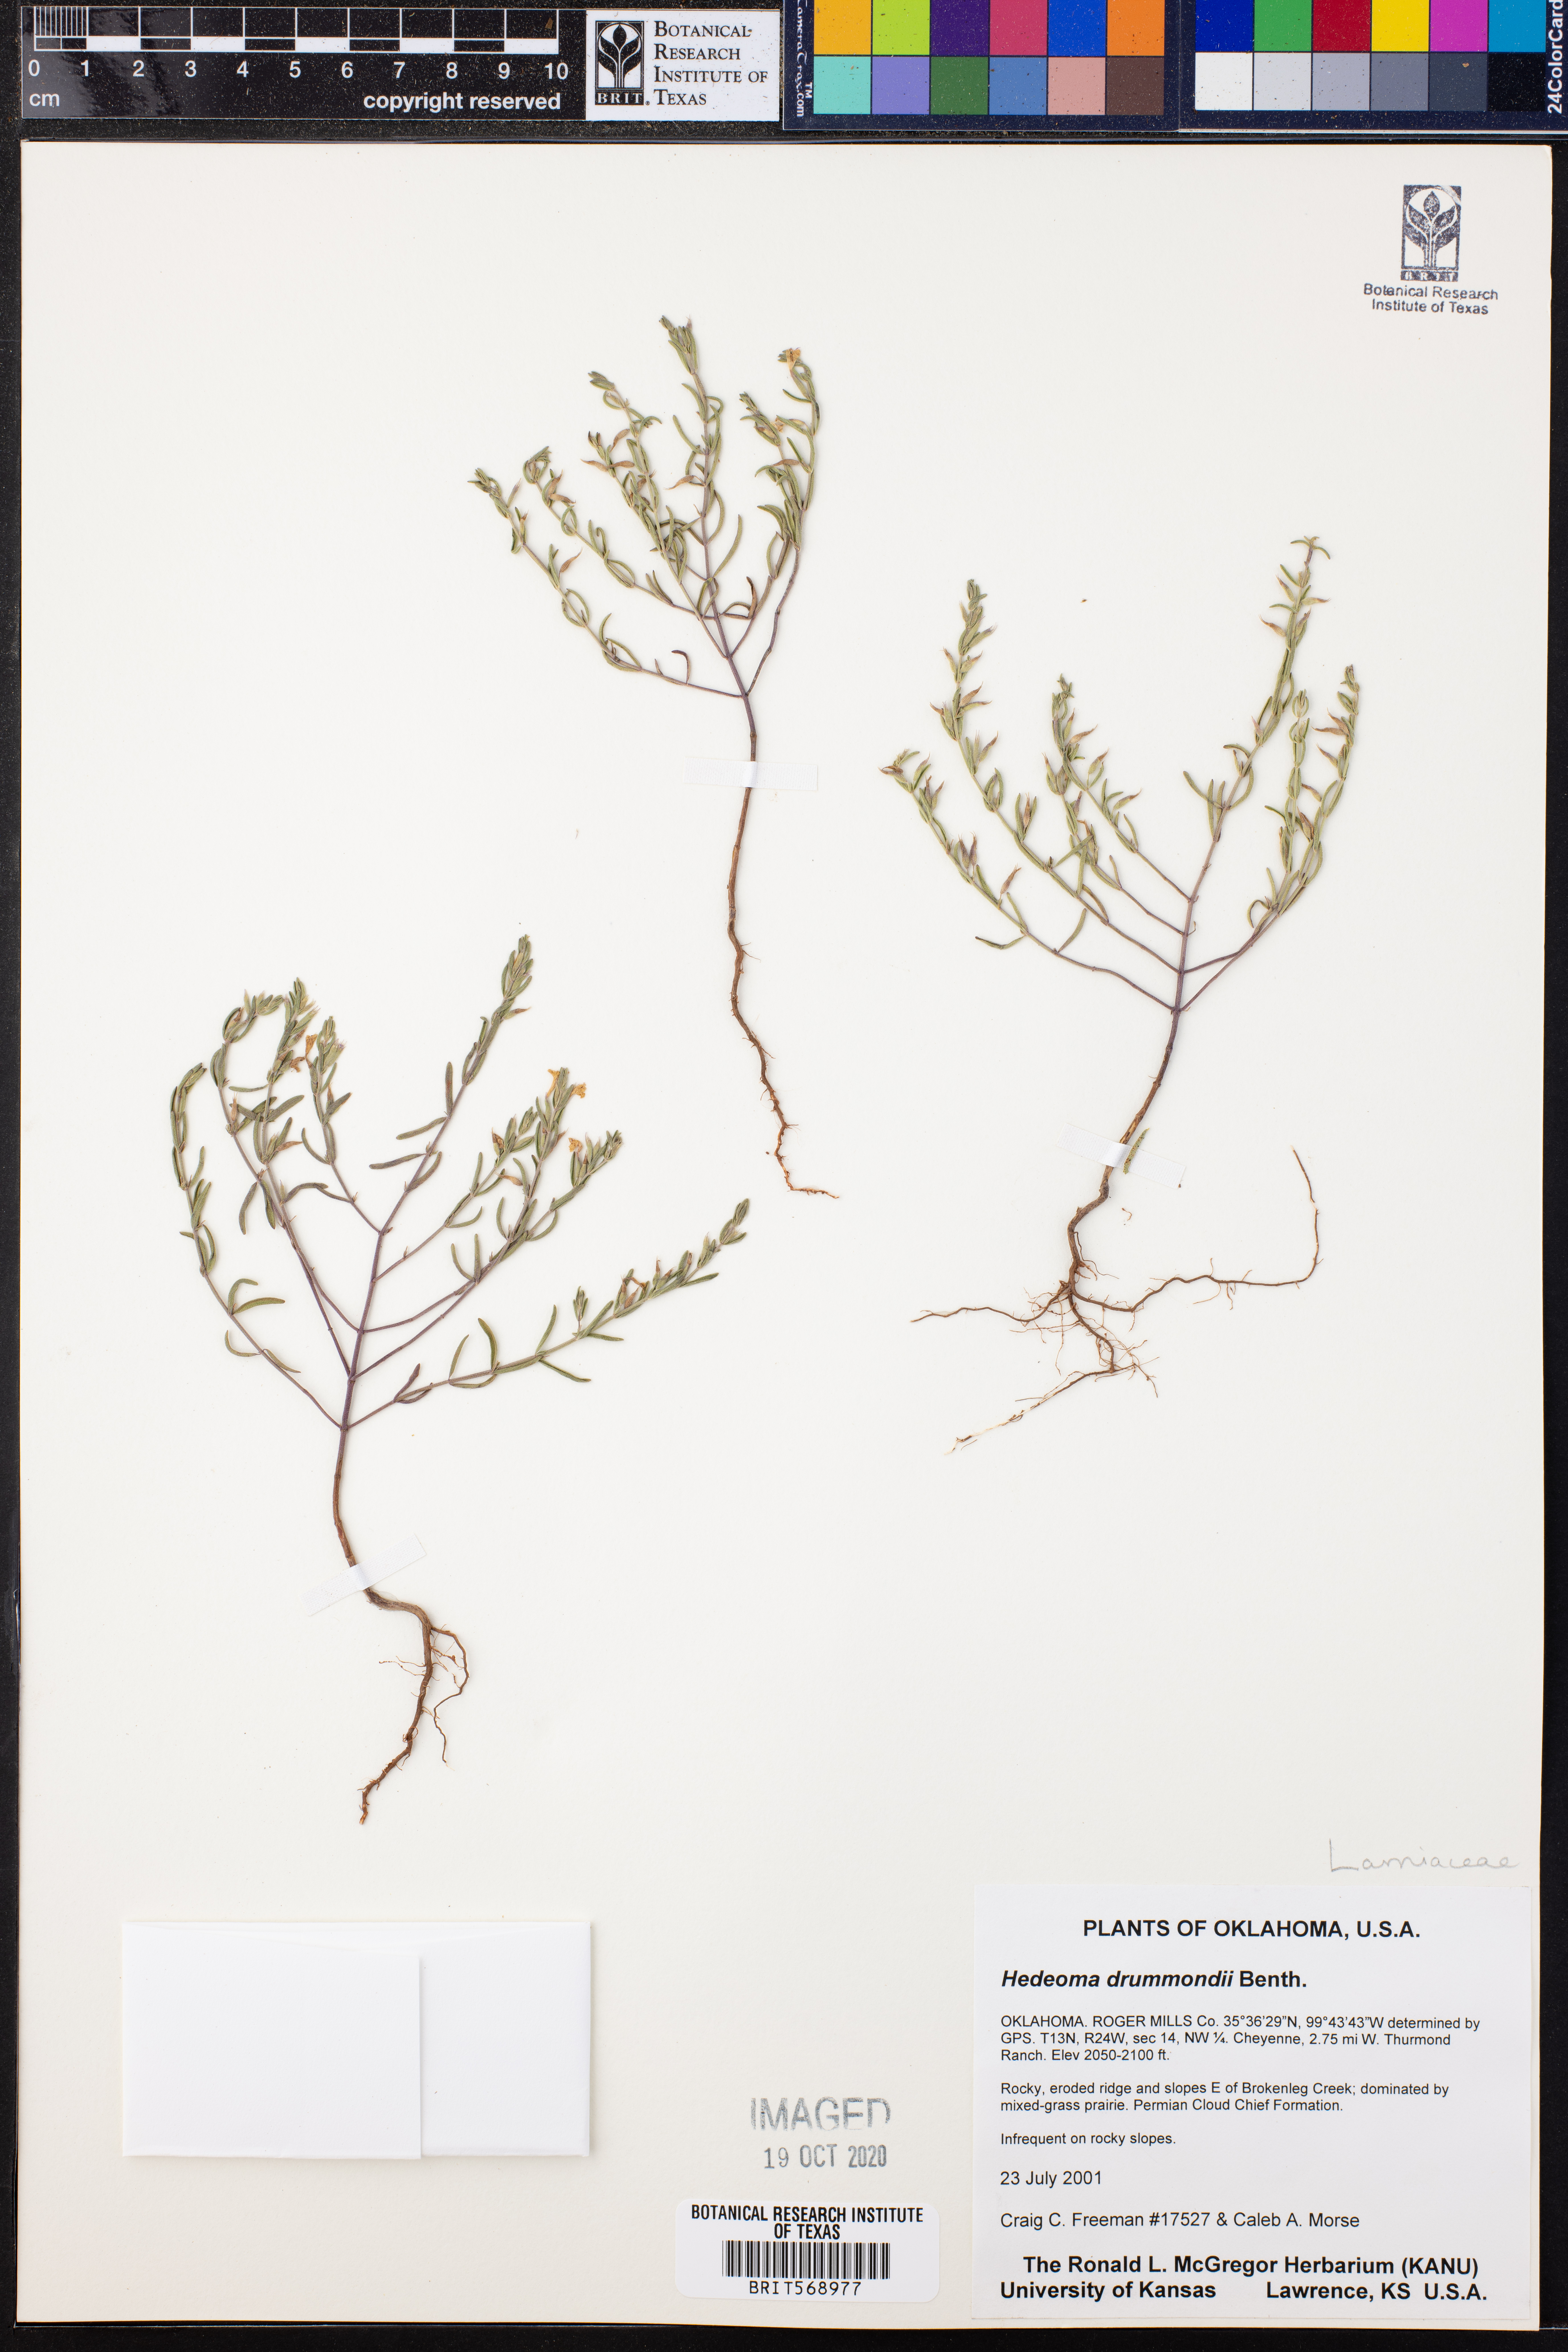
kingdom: Plantae
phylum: Tracheophyta
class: Magnoliopsida
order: Lamiales
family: Lamiaceae
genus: Hedeoma
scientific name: Hedeoma drummondii
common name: New mexico pennyroyal
